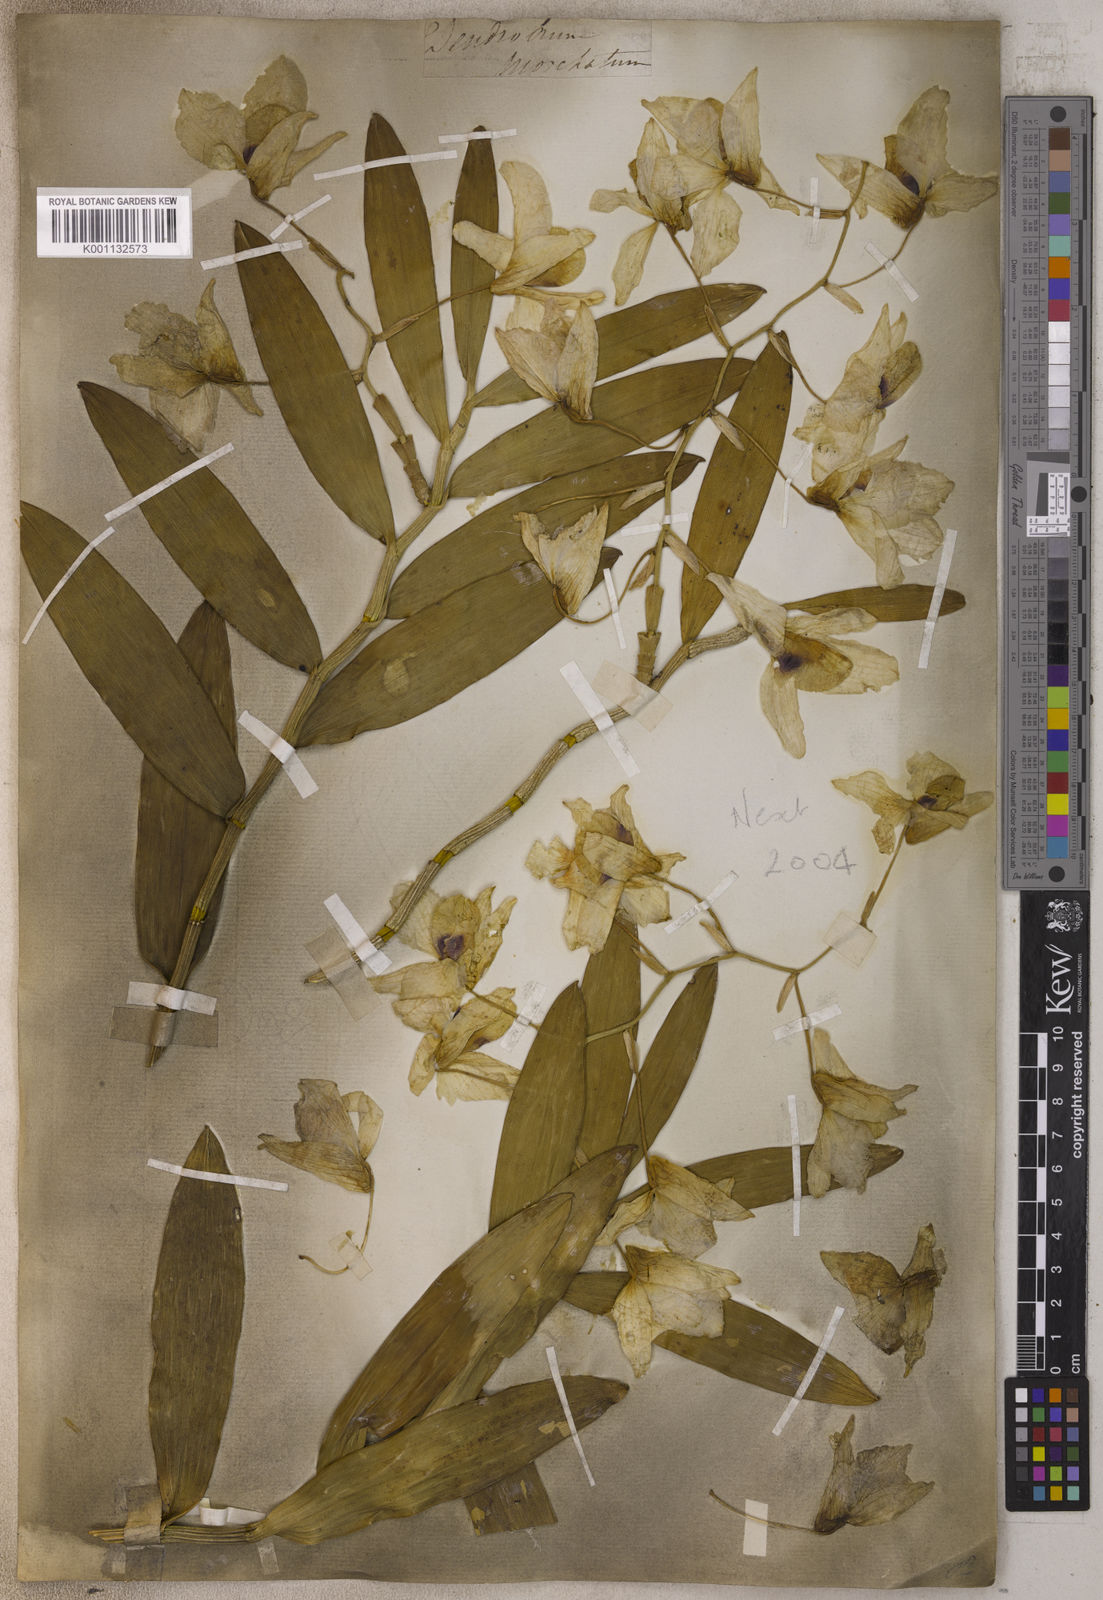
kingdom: Plantae
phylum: Tracheophyta
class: Liliopsida
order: Asparagales
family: Orchidaceae
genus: Dendrobium
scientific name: Dendrobium pulchellum
